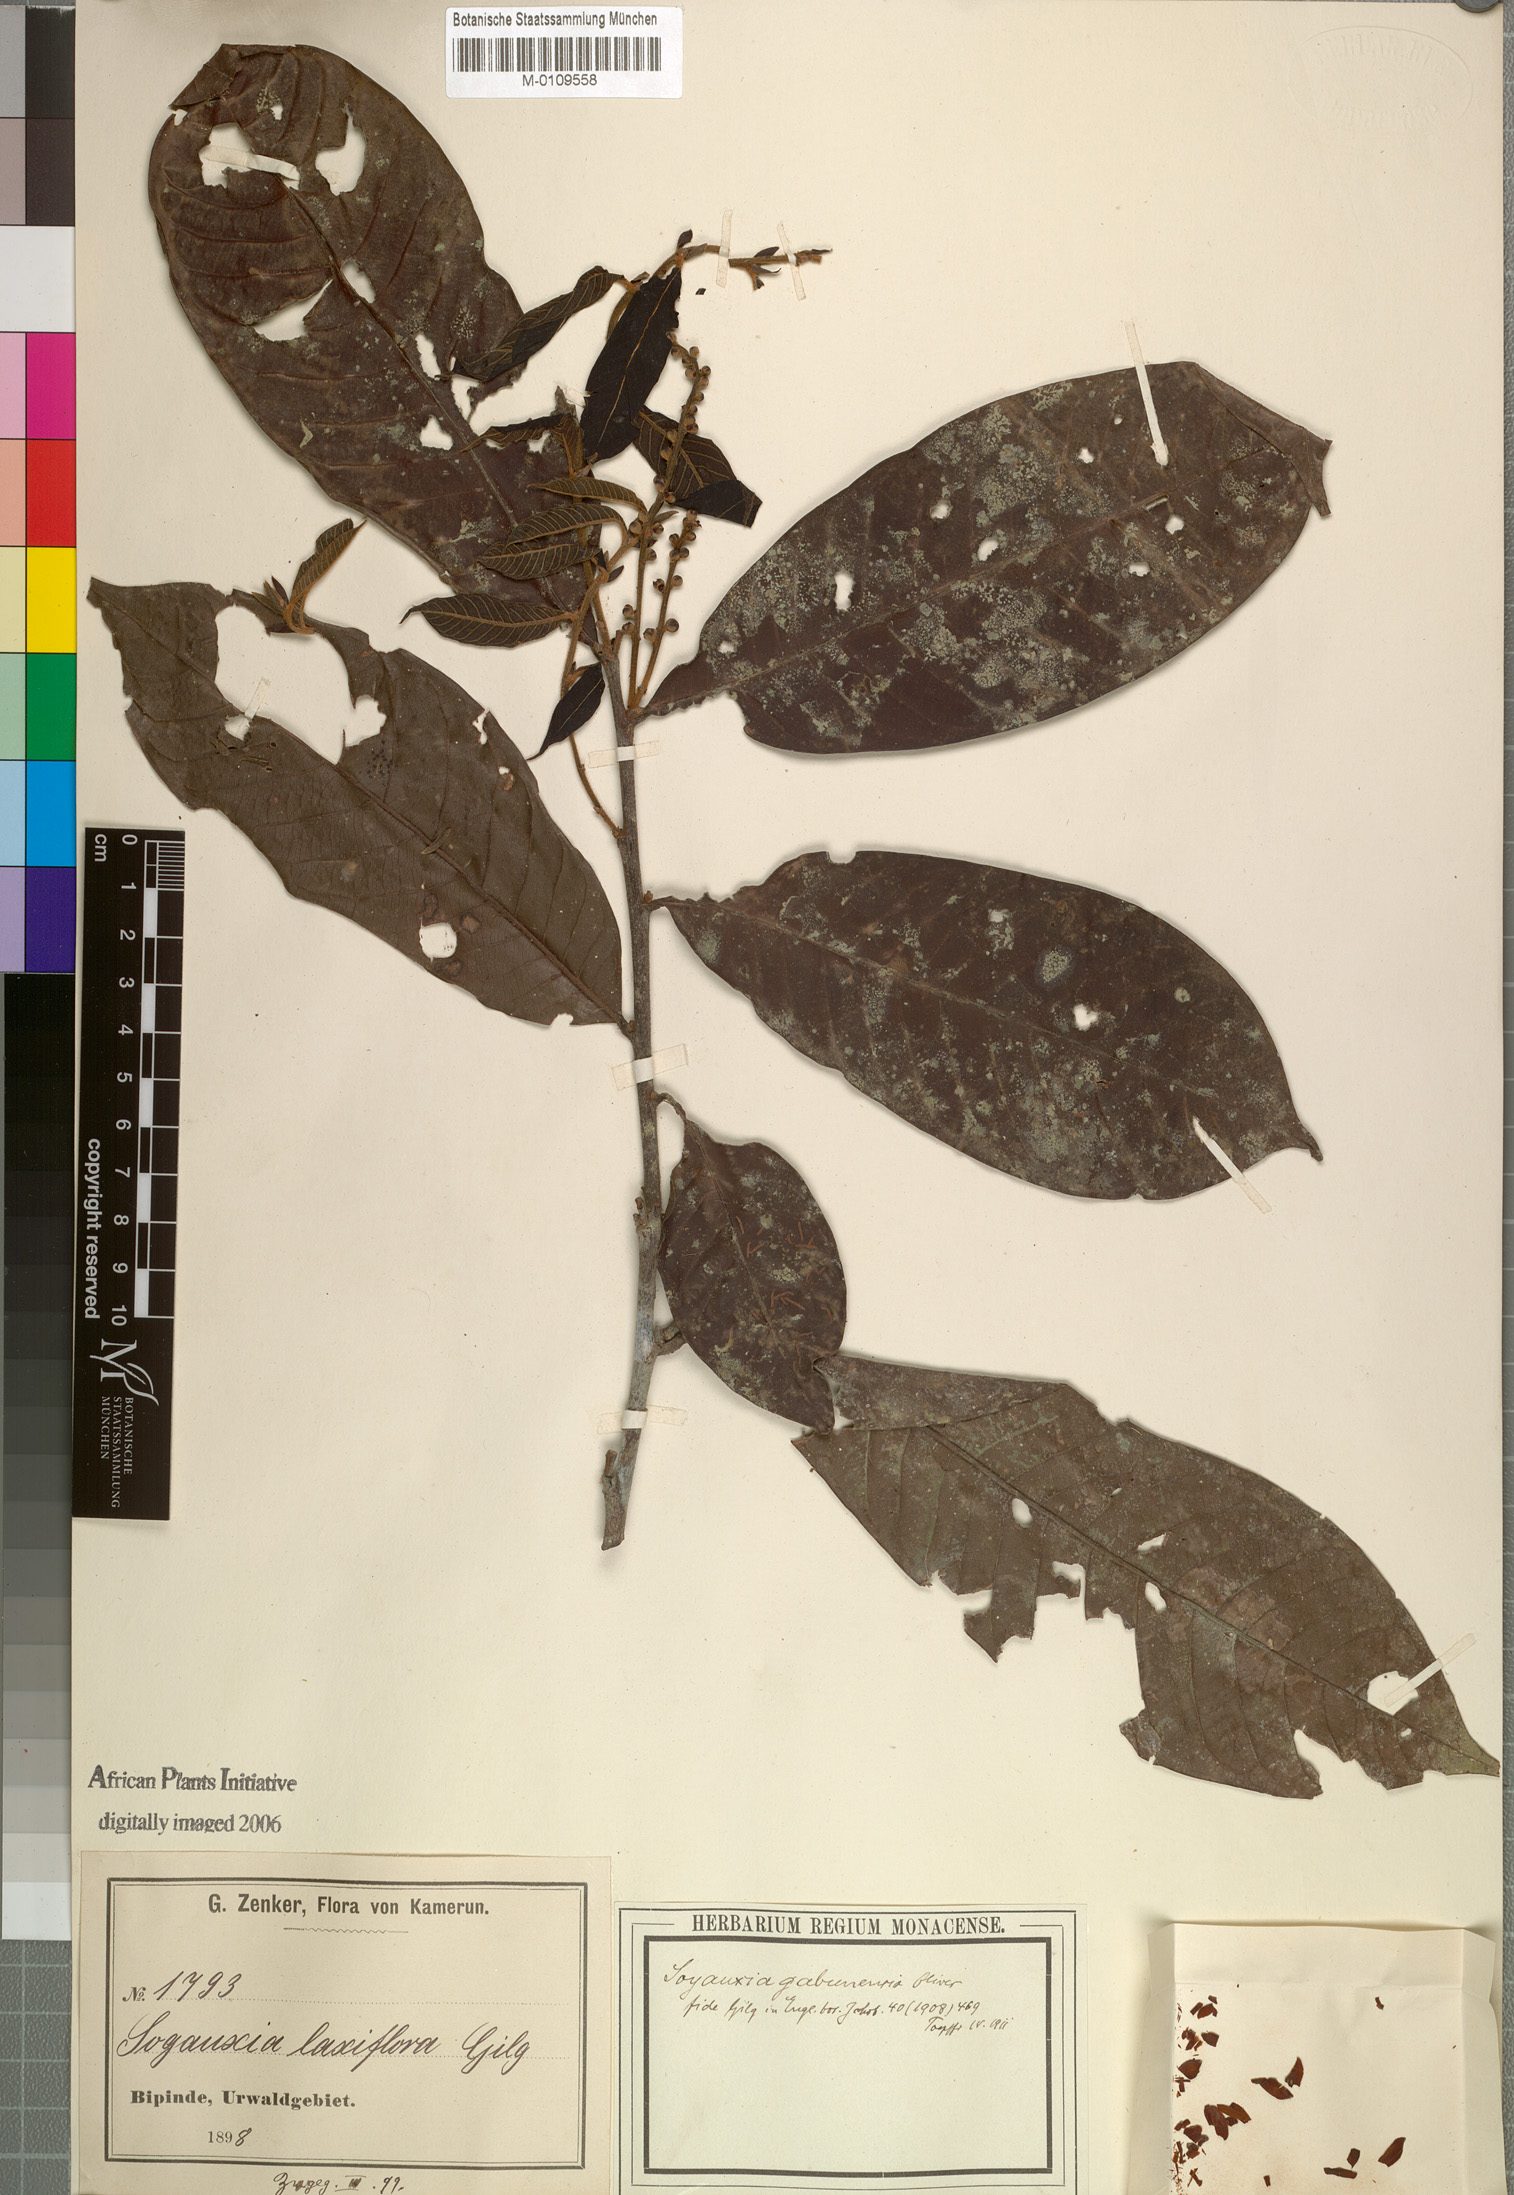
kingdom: Plantae
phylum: Tracheophyta
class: Magnoliopsida
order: Saxifragales
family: Peridiscaceae
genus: Soyauxia
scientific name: Soyauxia gabonensis
